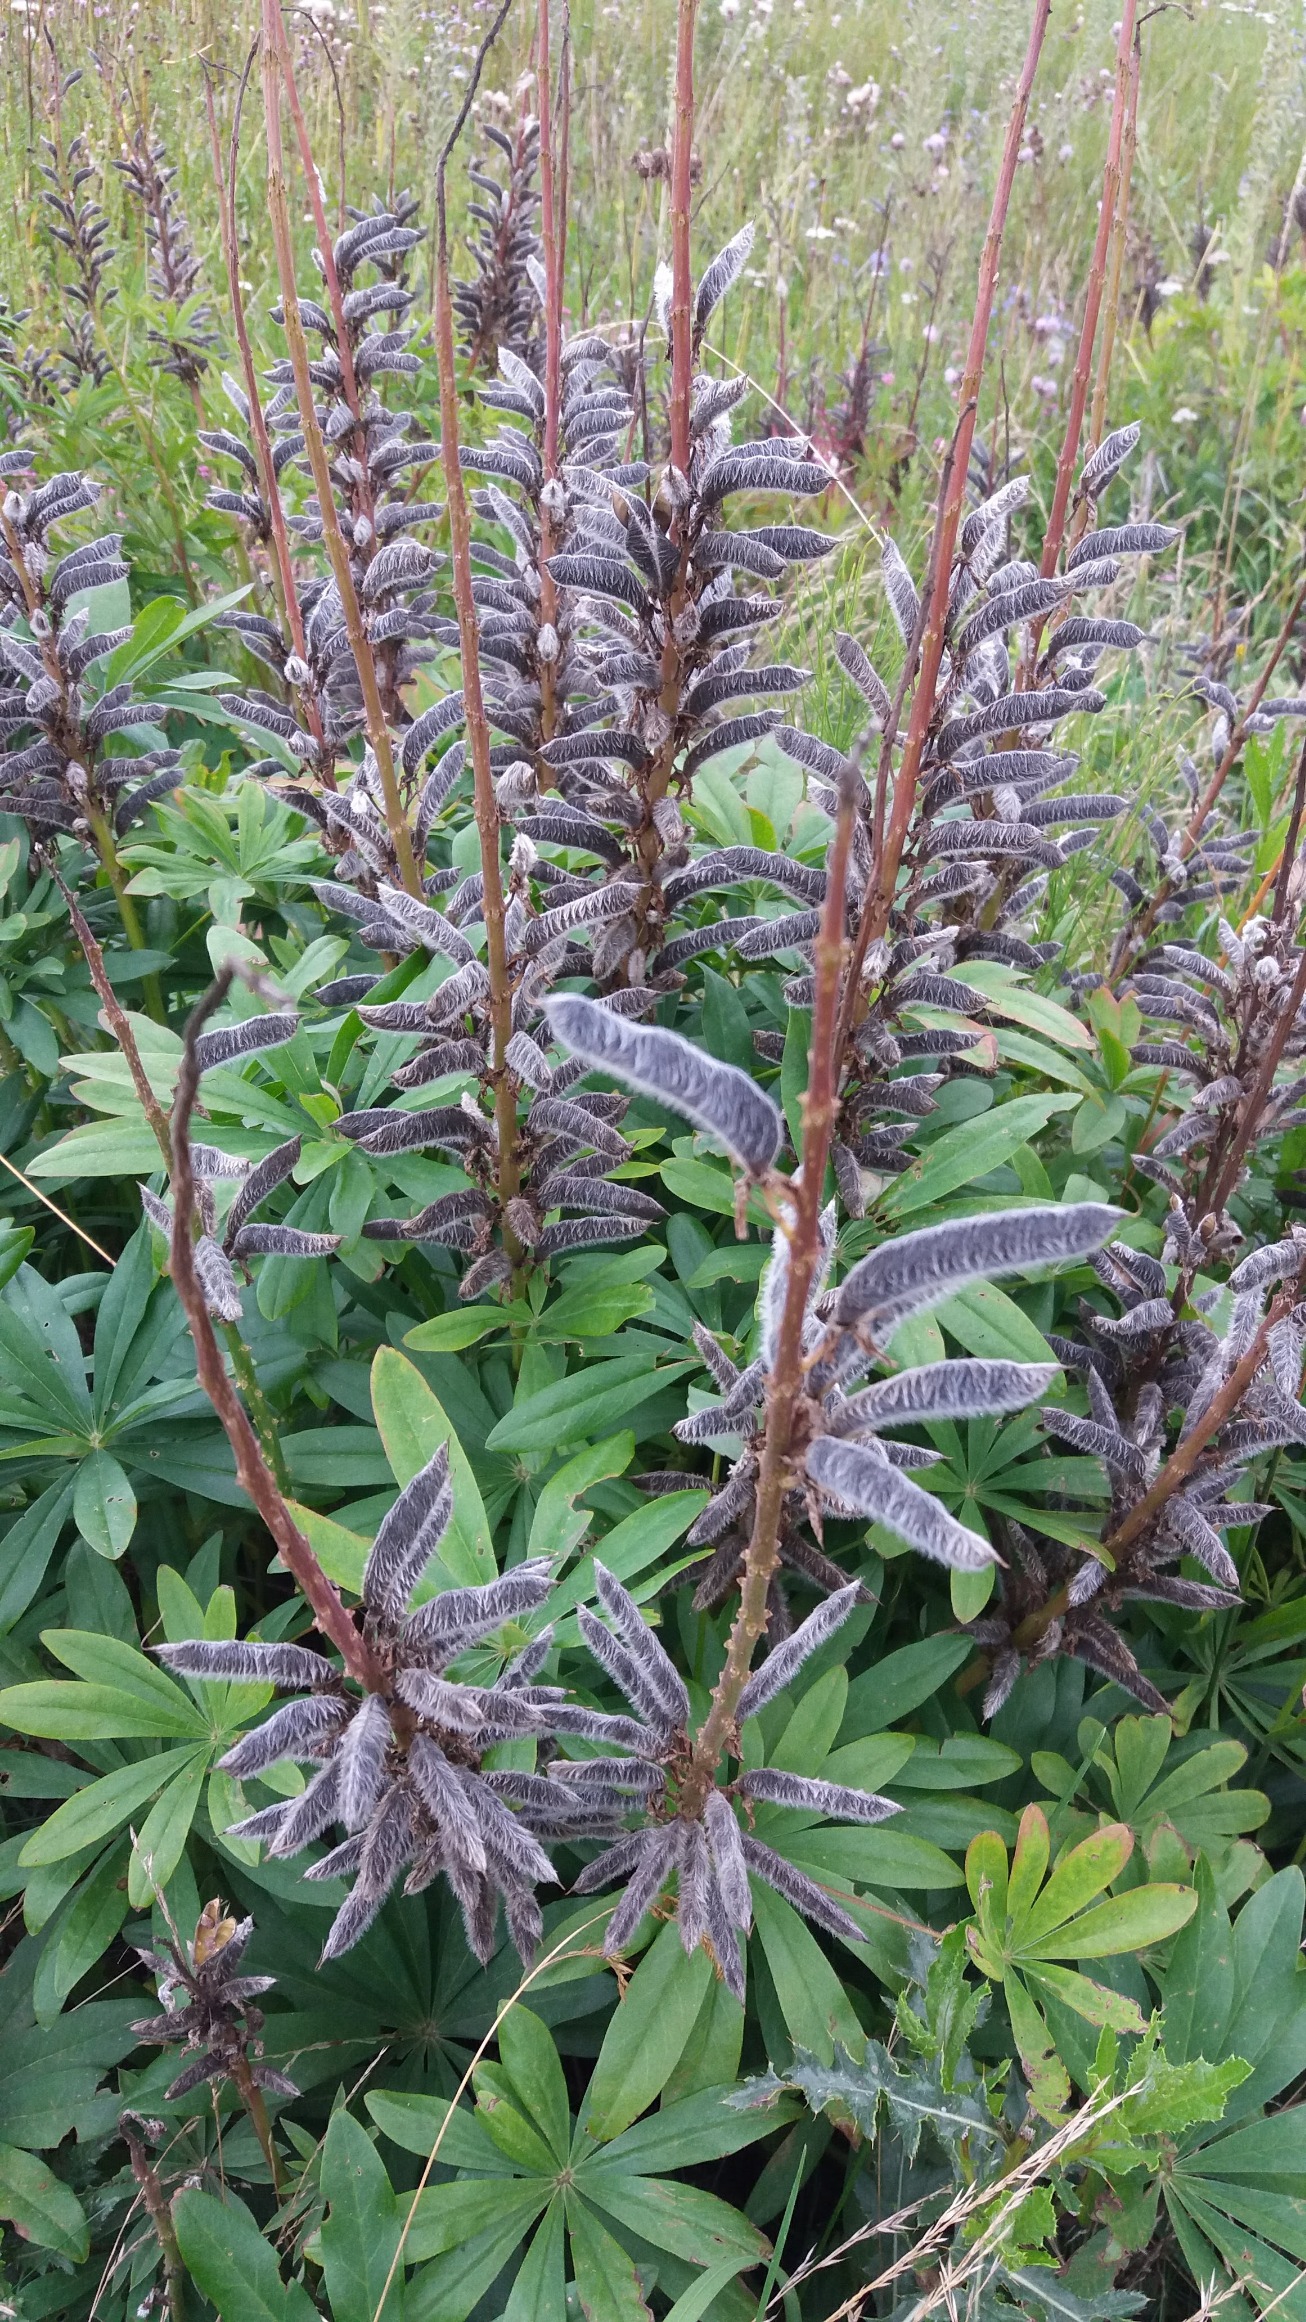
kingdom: Plantae
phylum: Tracheophyta
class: Magnoliopsida
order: Fabales
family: Fabaceae
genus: Lupinus
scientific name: Lupinus polyphyllus
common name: Mangebladet lupin
